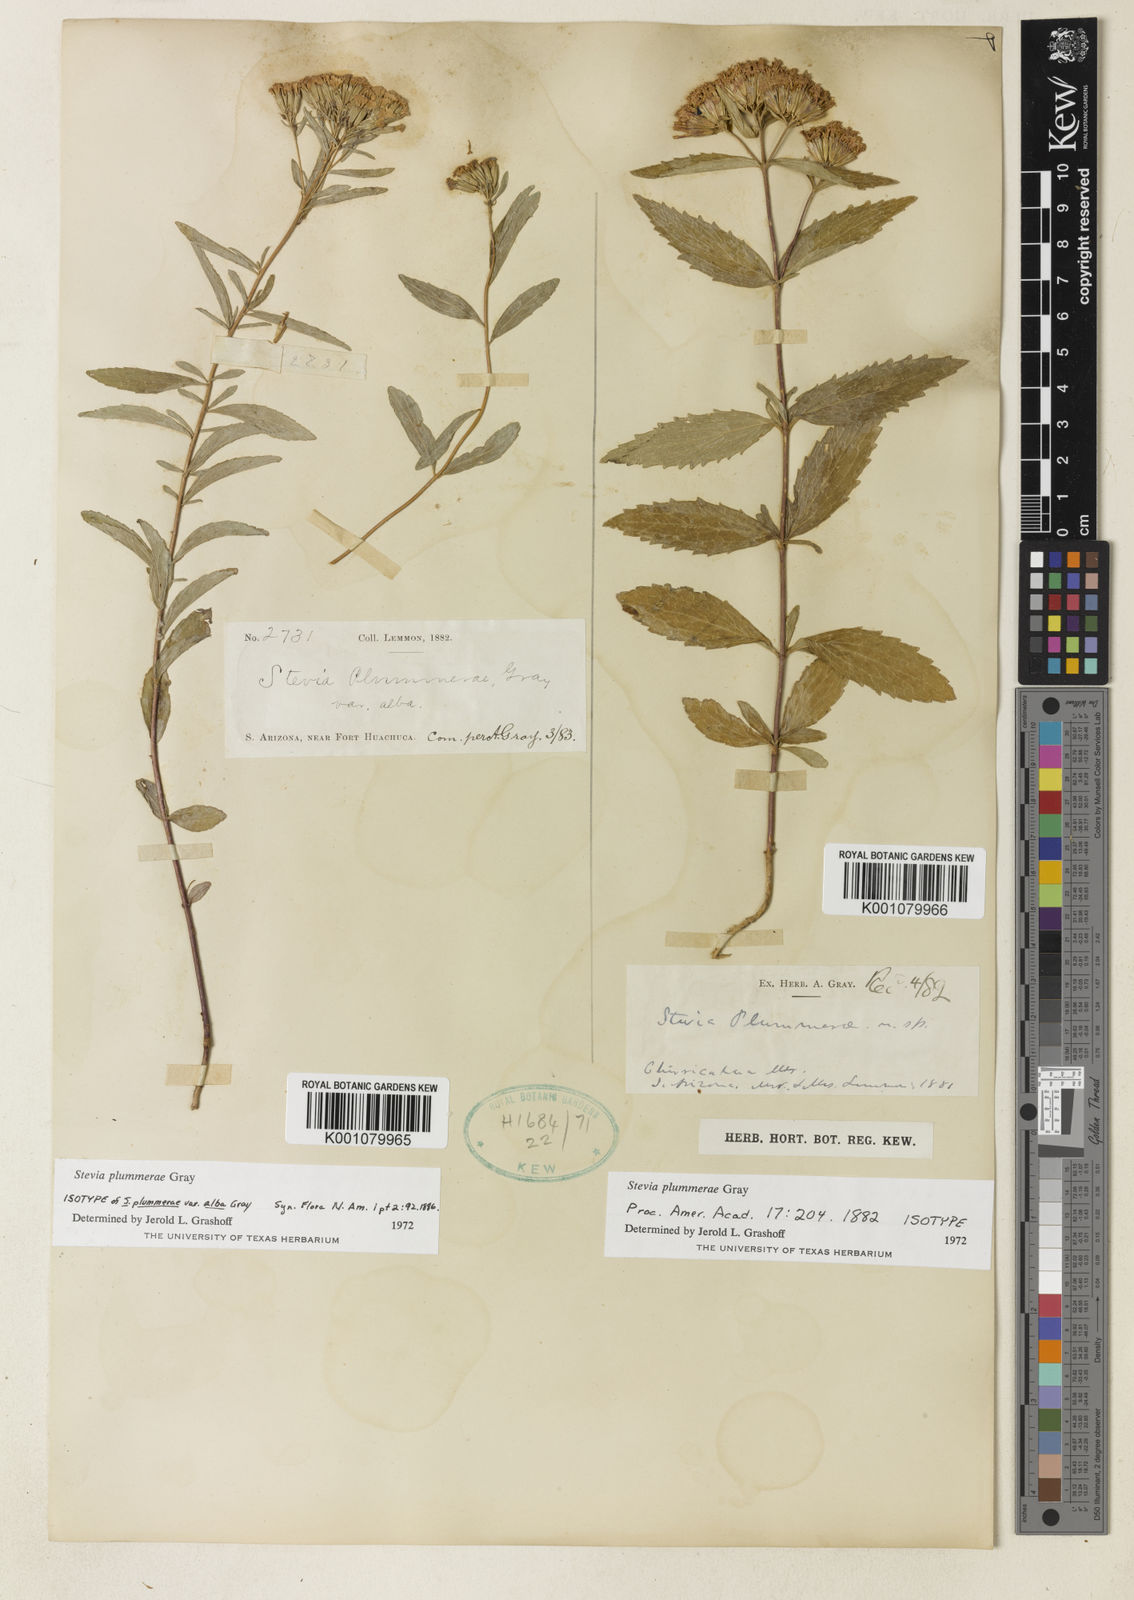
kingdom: Plantae
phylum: Tracheophyta
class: Magnoliopsida
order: Asterales
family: Asteraceae
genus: Stevia
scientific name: Stevia plummerae
